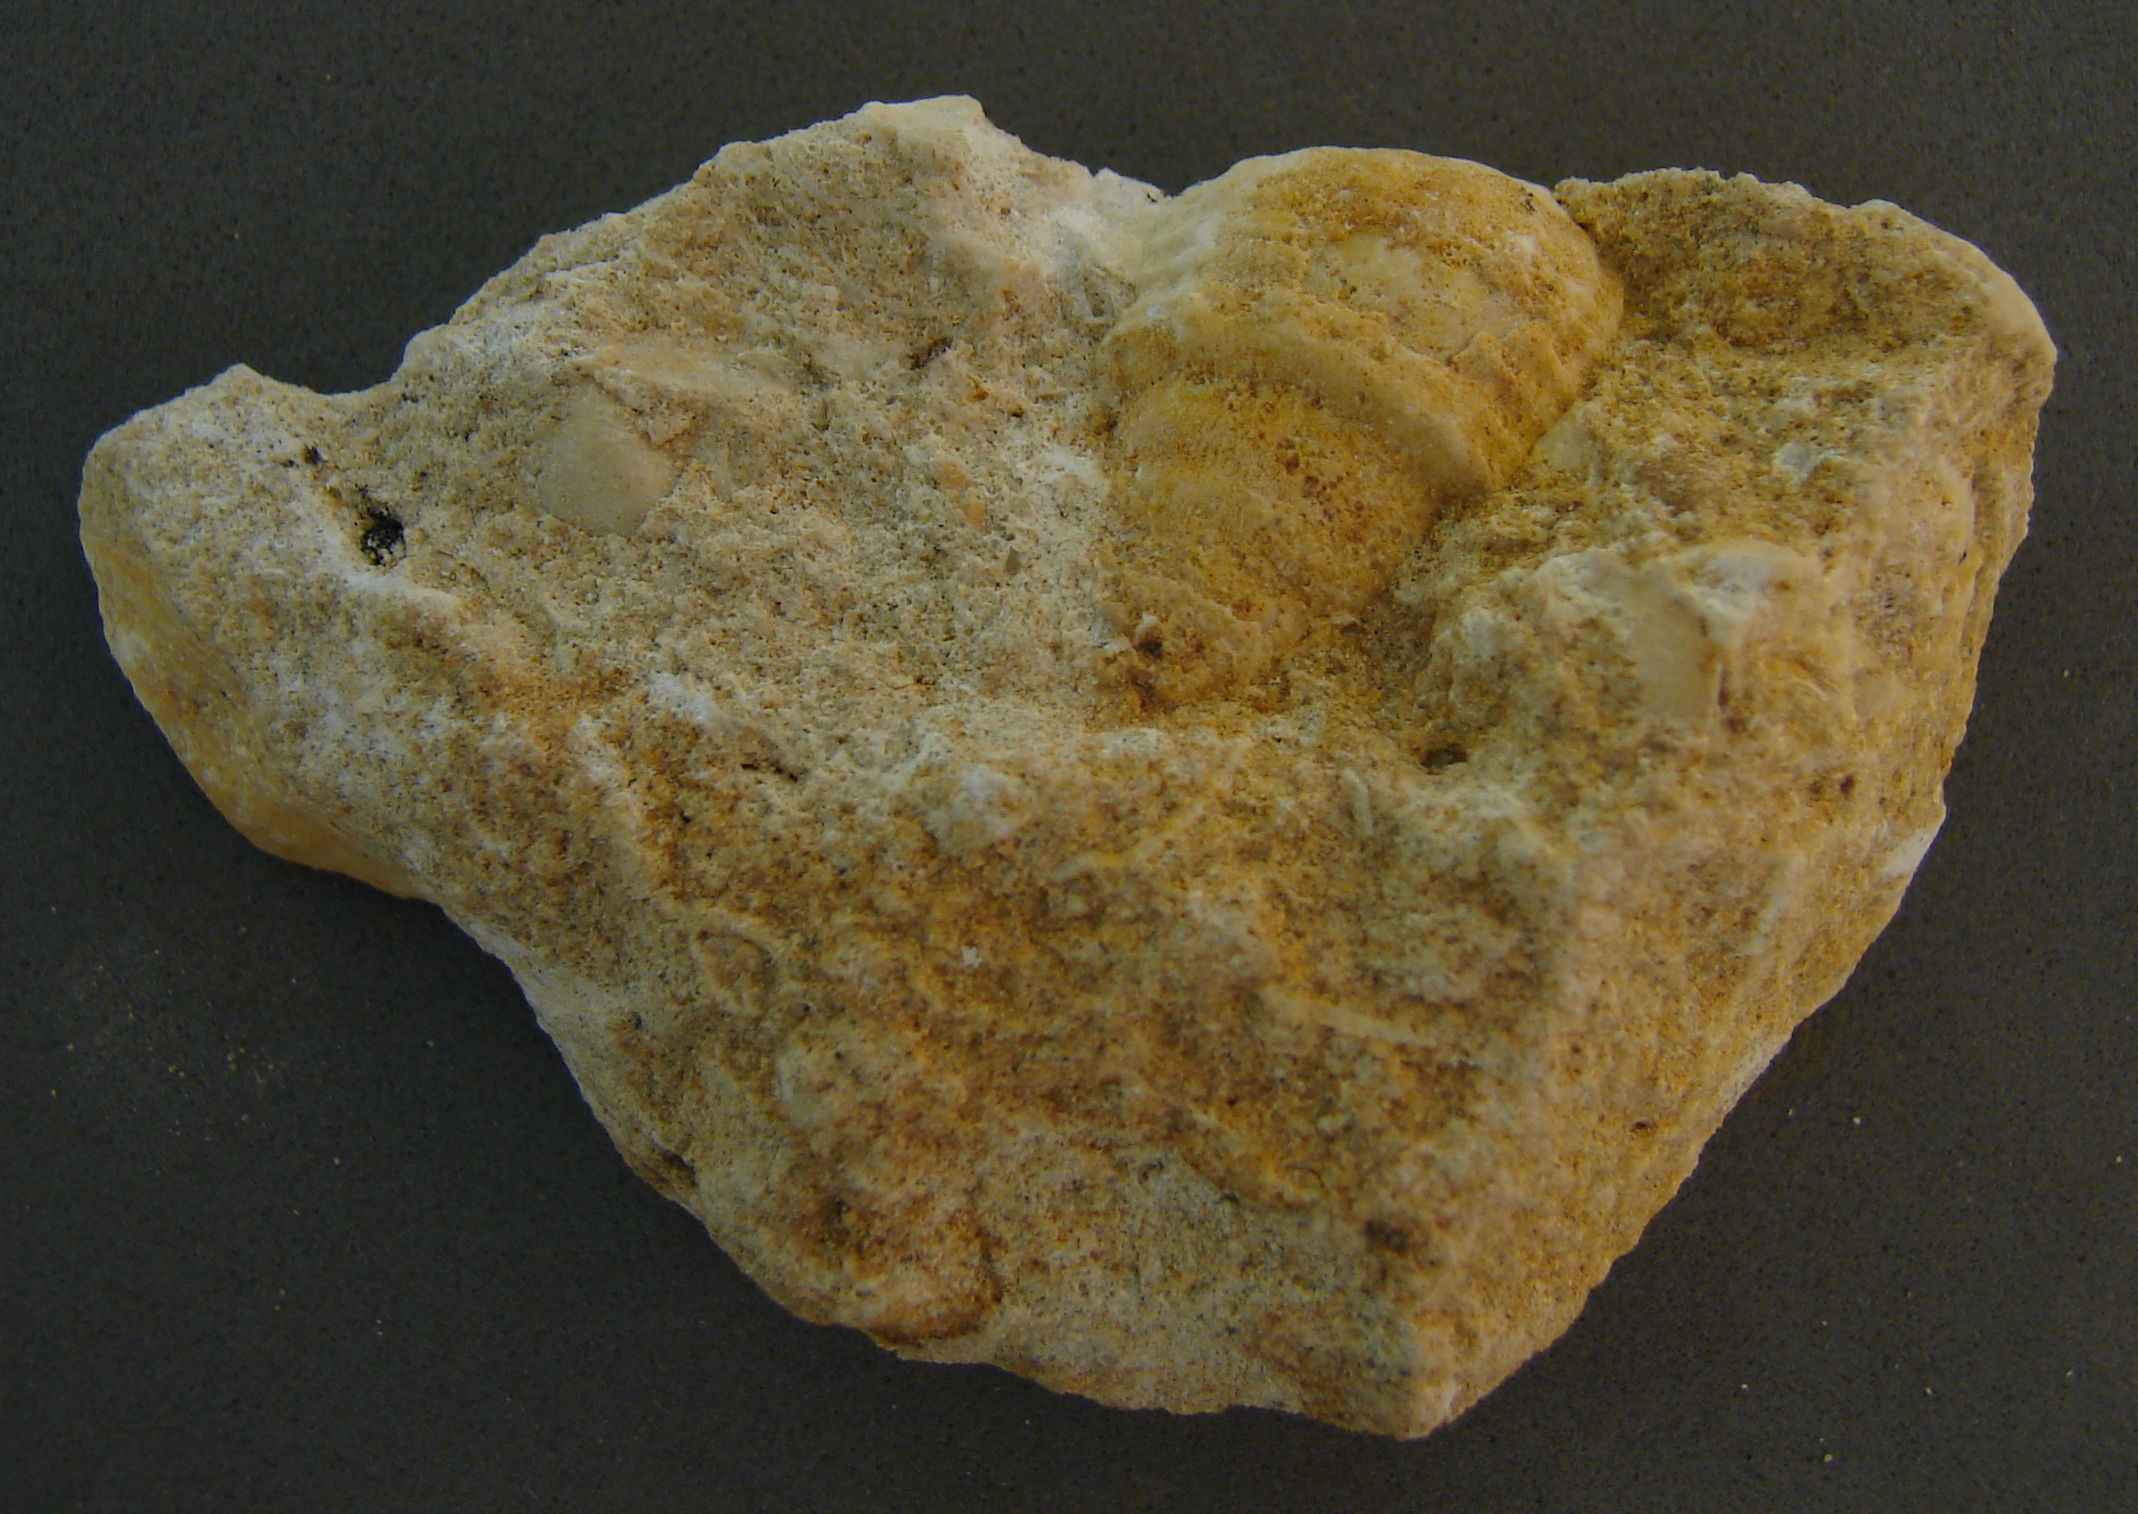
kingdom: Animalia
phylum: Mollusca
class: Gastropoda
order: Neogastropoda
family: Purpurinidae
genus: Microschiza
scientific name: Microschiza
